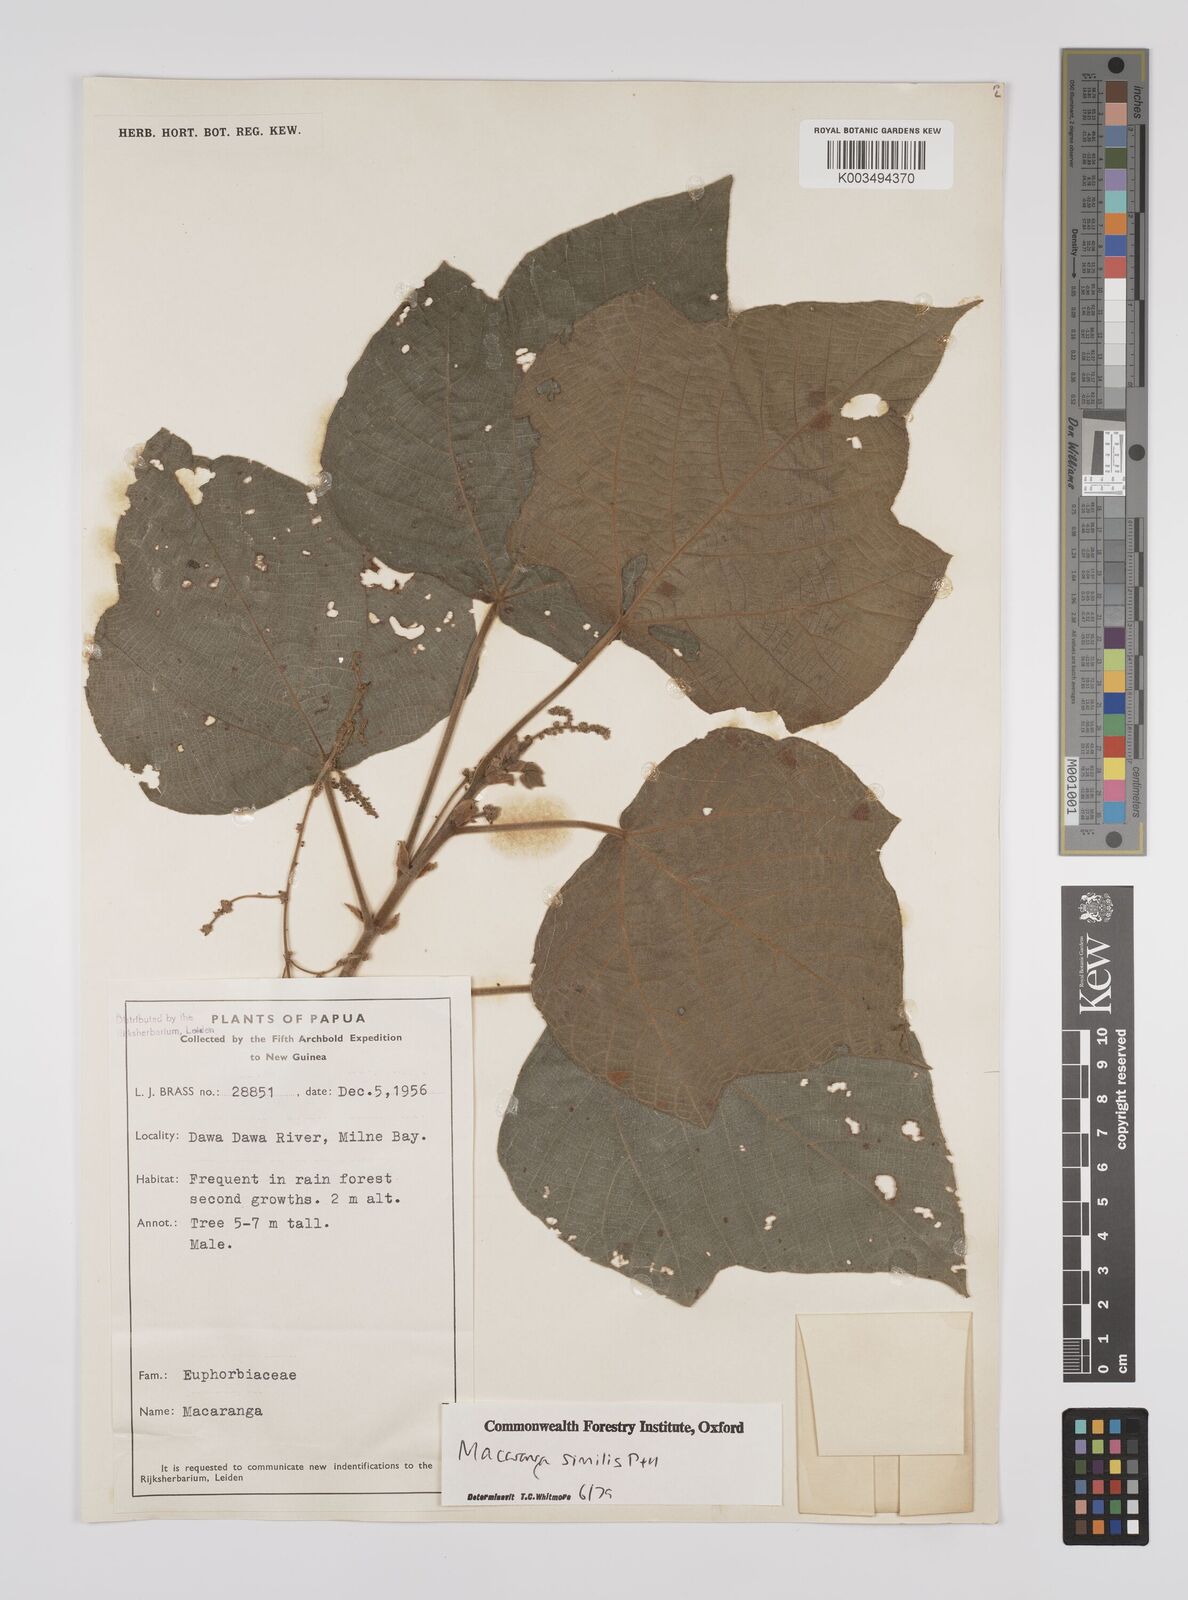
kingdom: Plantae
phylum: Tracheophyta
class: Magnoliopsida
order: Malpighiales
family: Euphorbiaceae
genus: Macaranga
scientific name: Macaranga similis
